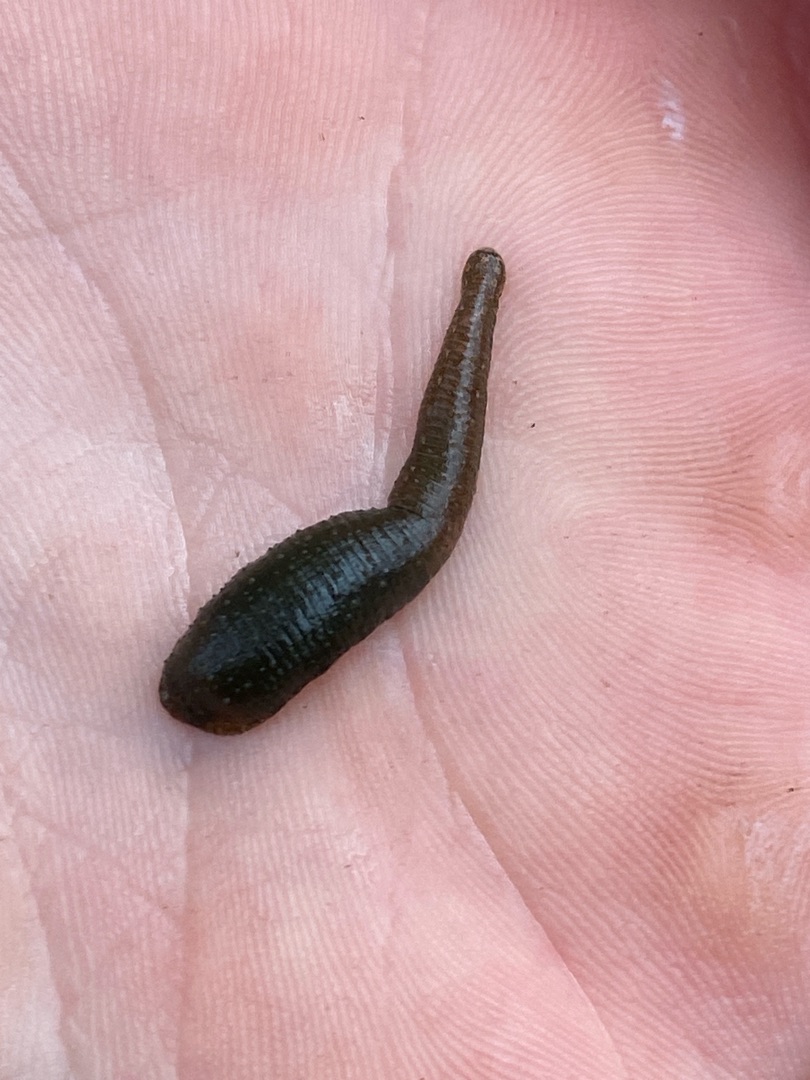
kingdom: Animalia
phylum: Annelida
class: Clitellata
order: Rhynchobdellida
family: Glossiphoniidae
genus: Theromyzon
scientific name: Theromyzon tessulatum
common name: Andeigle
